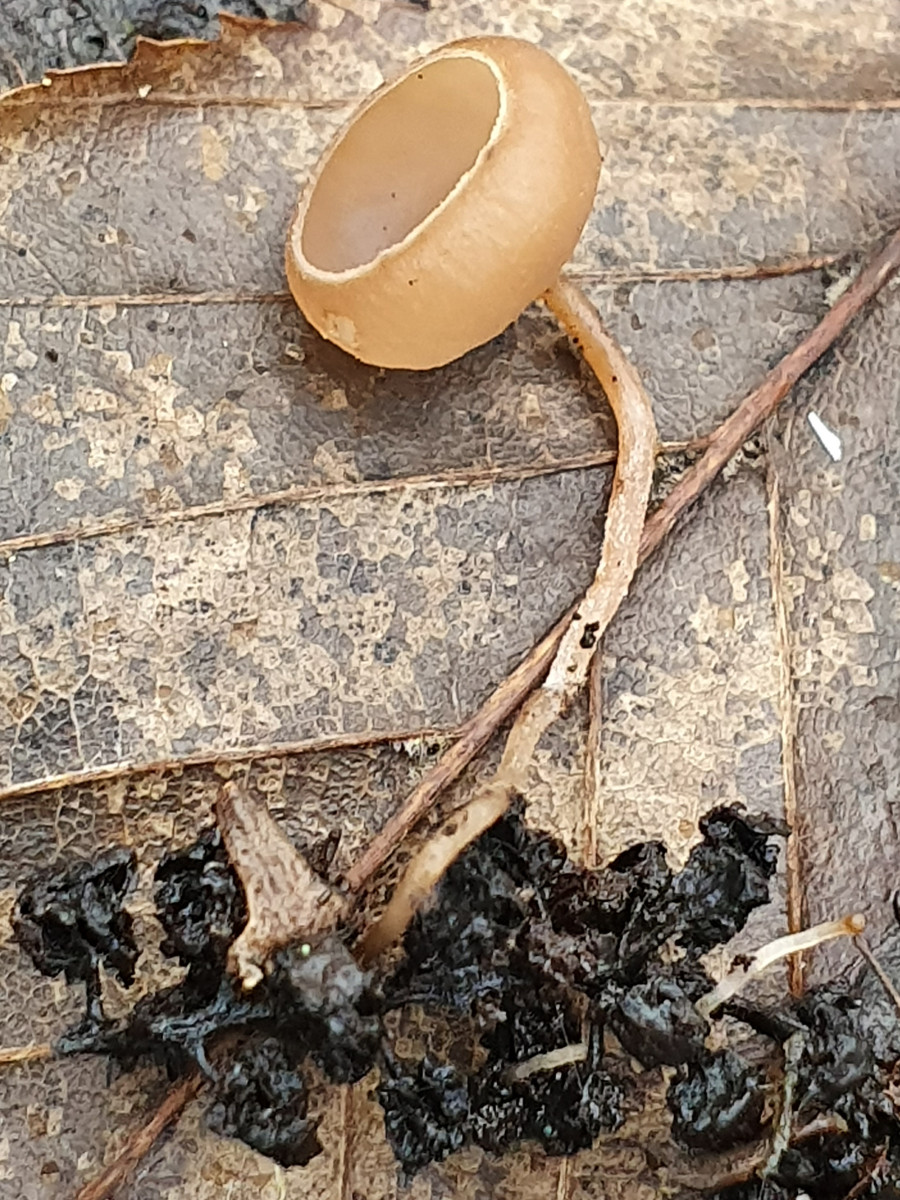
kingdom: Fungi
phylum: Ascomycota
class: Leotiomycetes
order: Helotiales
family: Sclerotiniaceae
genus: Ciboria
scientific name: Ciboria amentacea
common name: ellerakle-knoldskive
